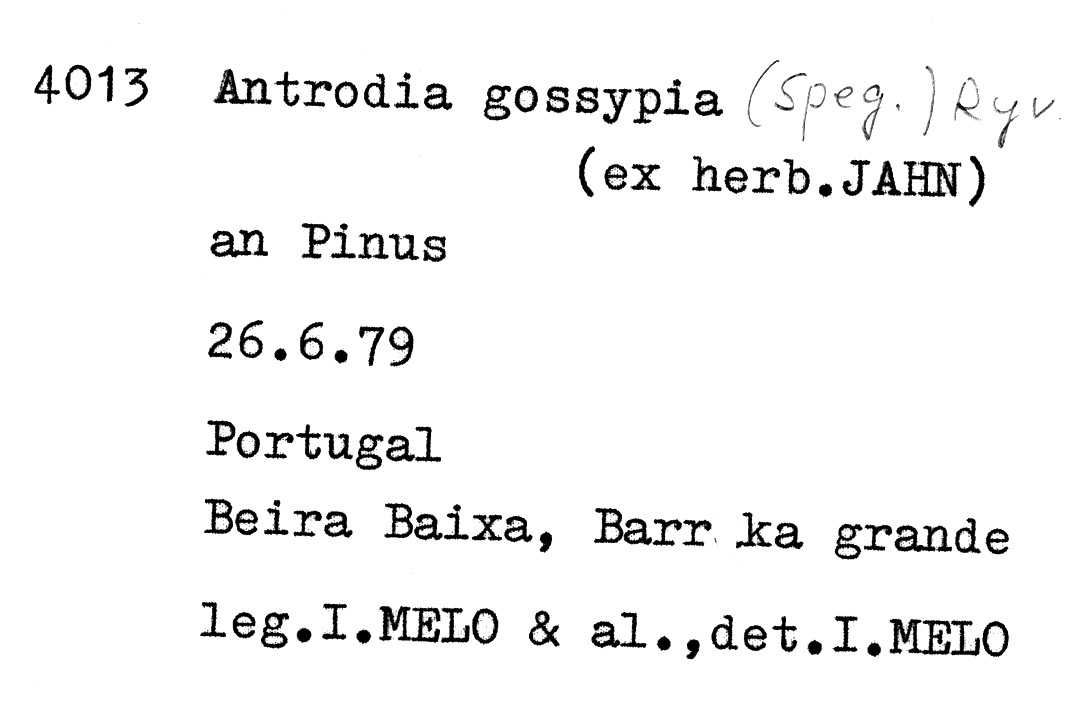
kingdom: Fungi
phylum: Basidiomycota
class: Agaricomycetes
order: Polyporales
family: Fomitopsidaceae
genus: Antrodia
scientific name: Antrodia gossypium
